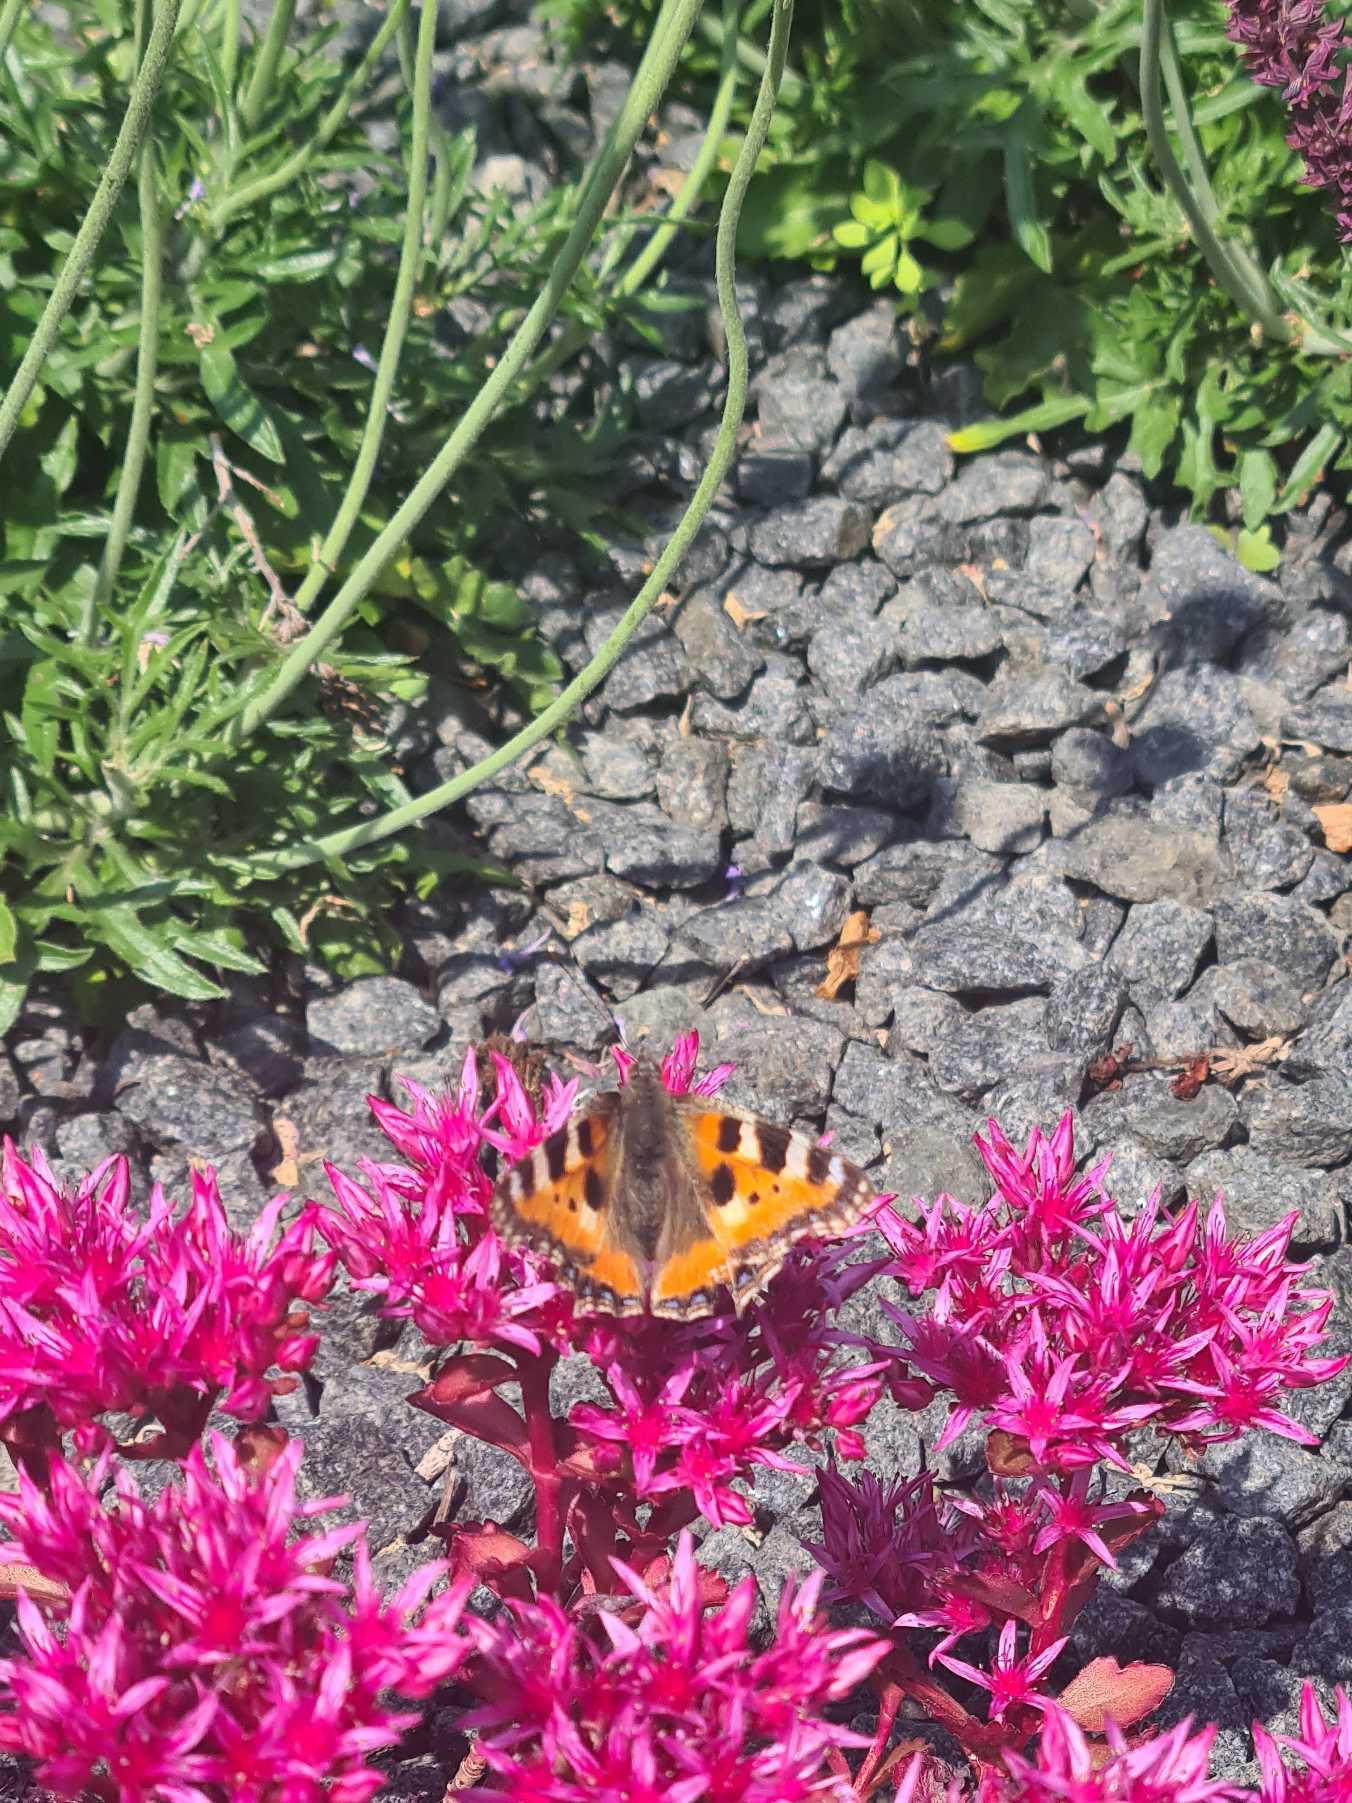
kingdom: Animalia
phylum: Arthropoda
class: Insecta
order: Lepidoptera
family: Nymphalidae
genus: Aglais
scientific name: Aglais urticae
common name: Nældens takvinge
